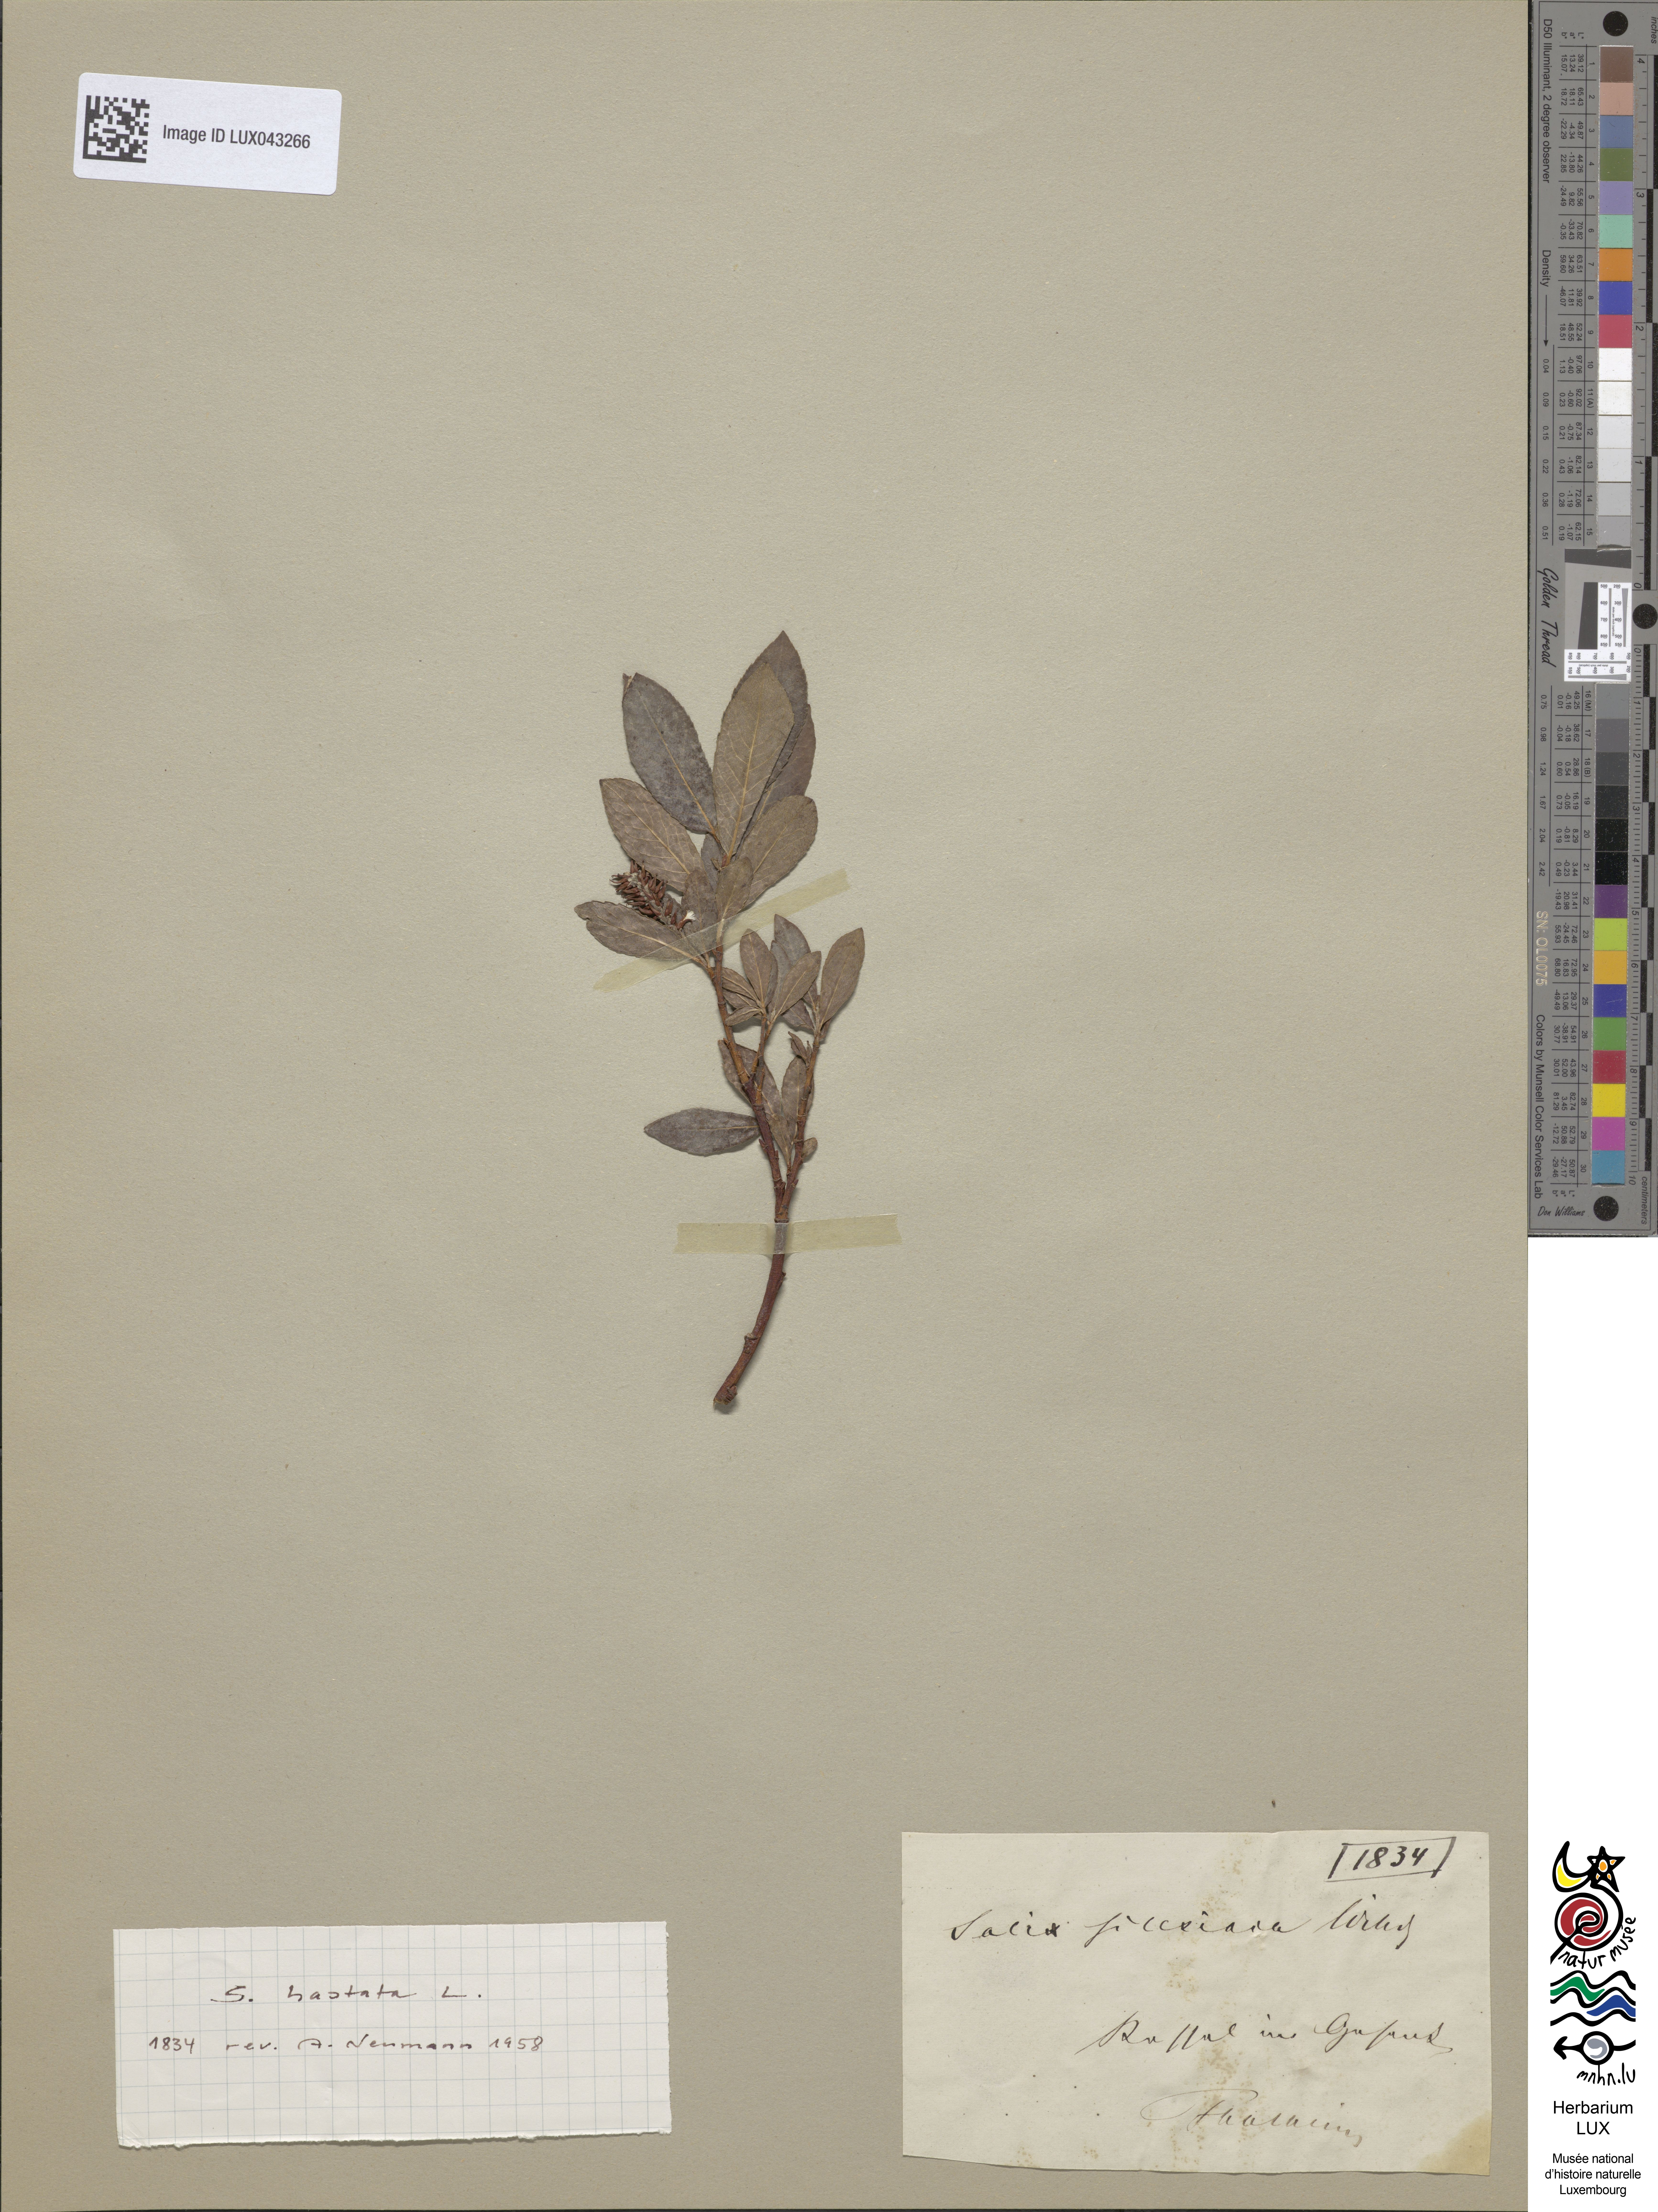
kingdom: Plantae
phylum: Tracheophyta
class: Magnoliopsida
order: Malpighiales
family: Salicaceae
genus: Salix
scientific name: Salix hastata
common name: Halberd willow
